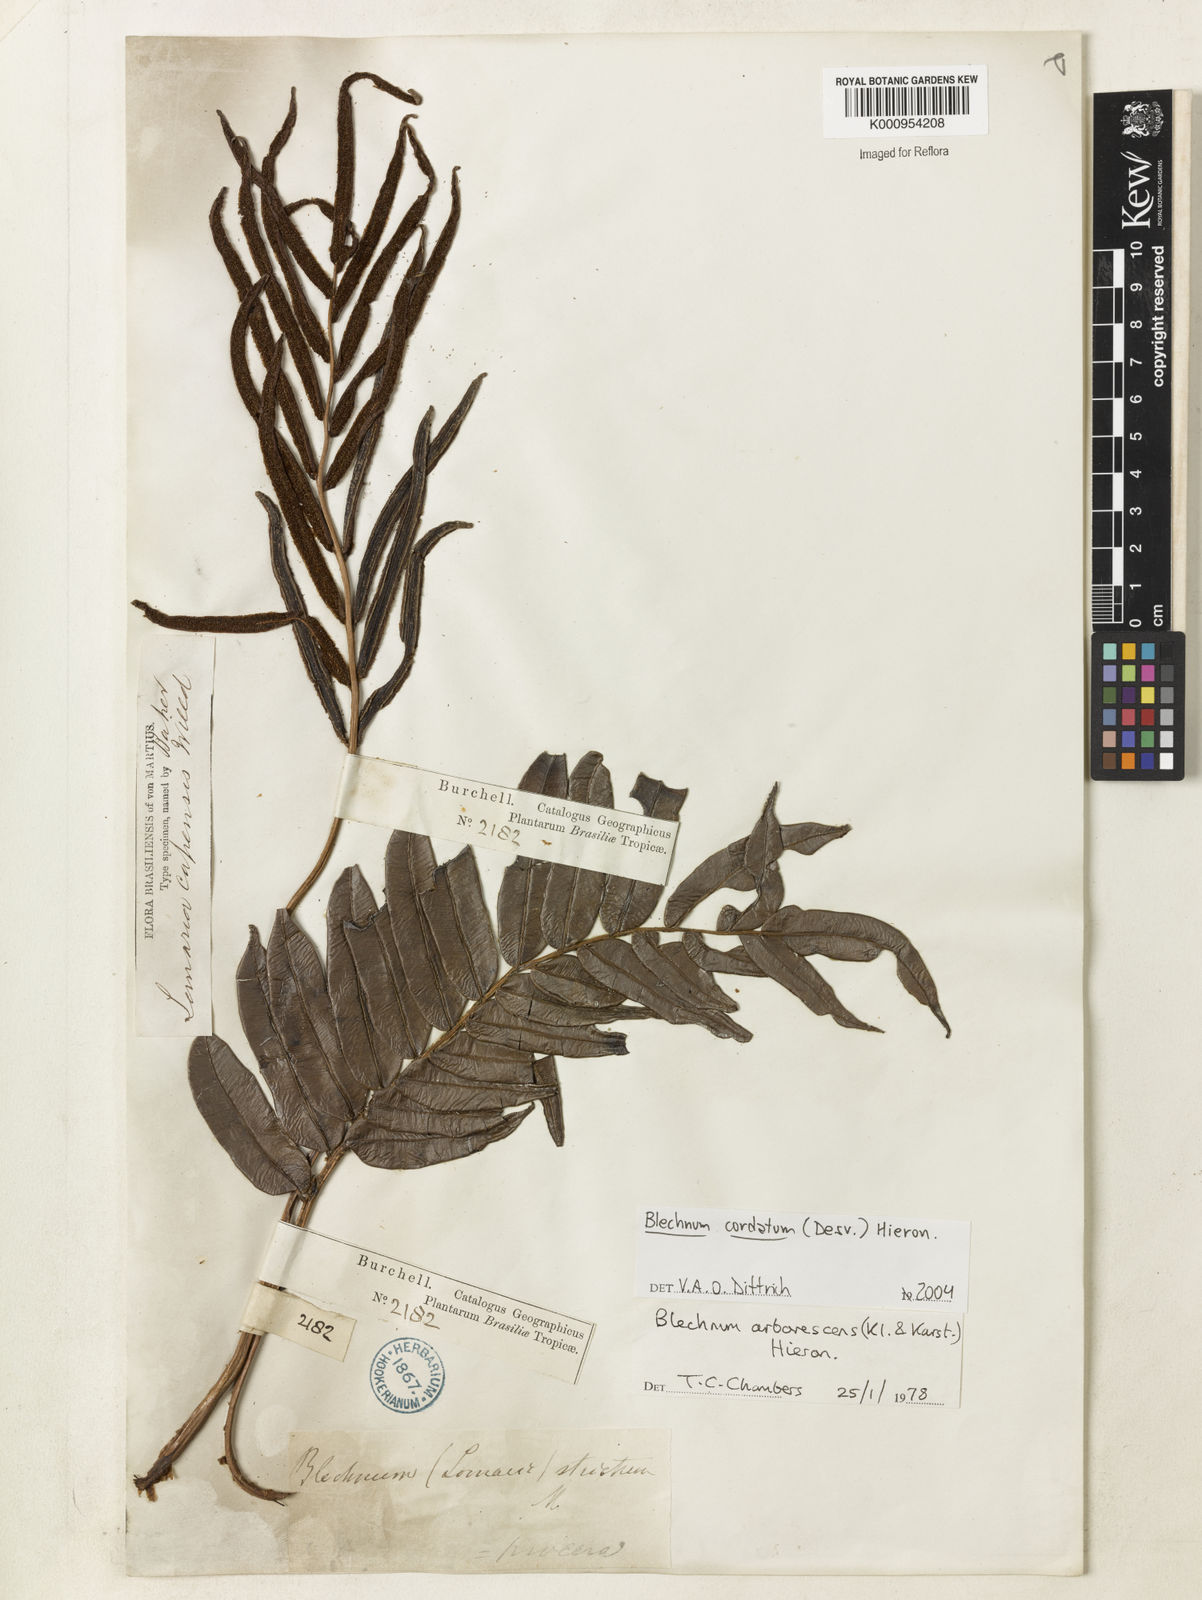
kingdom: Plantae
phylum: Tracheophyta
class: Polypodiopsida
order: Polypodiales
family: Blechnaceae
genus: Parablechnum
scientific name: Parablechnum cordatum
